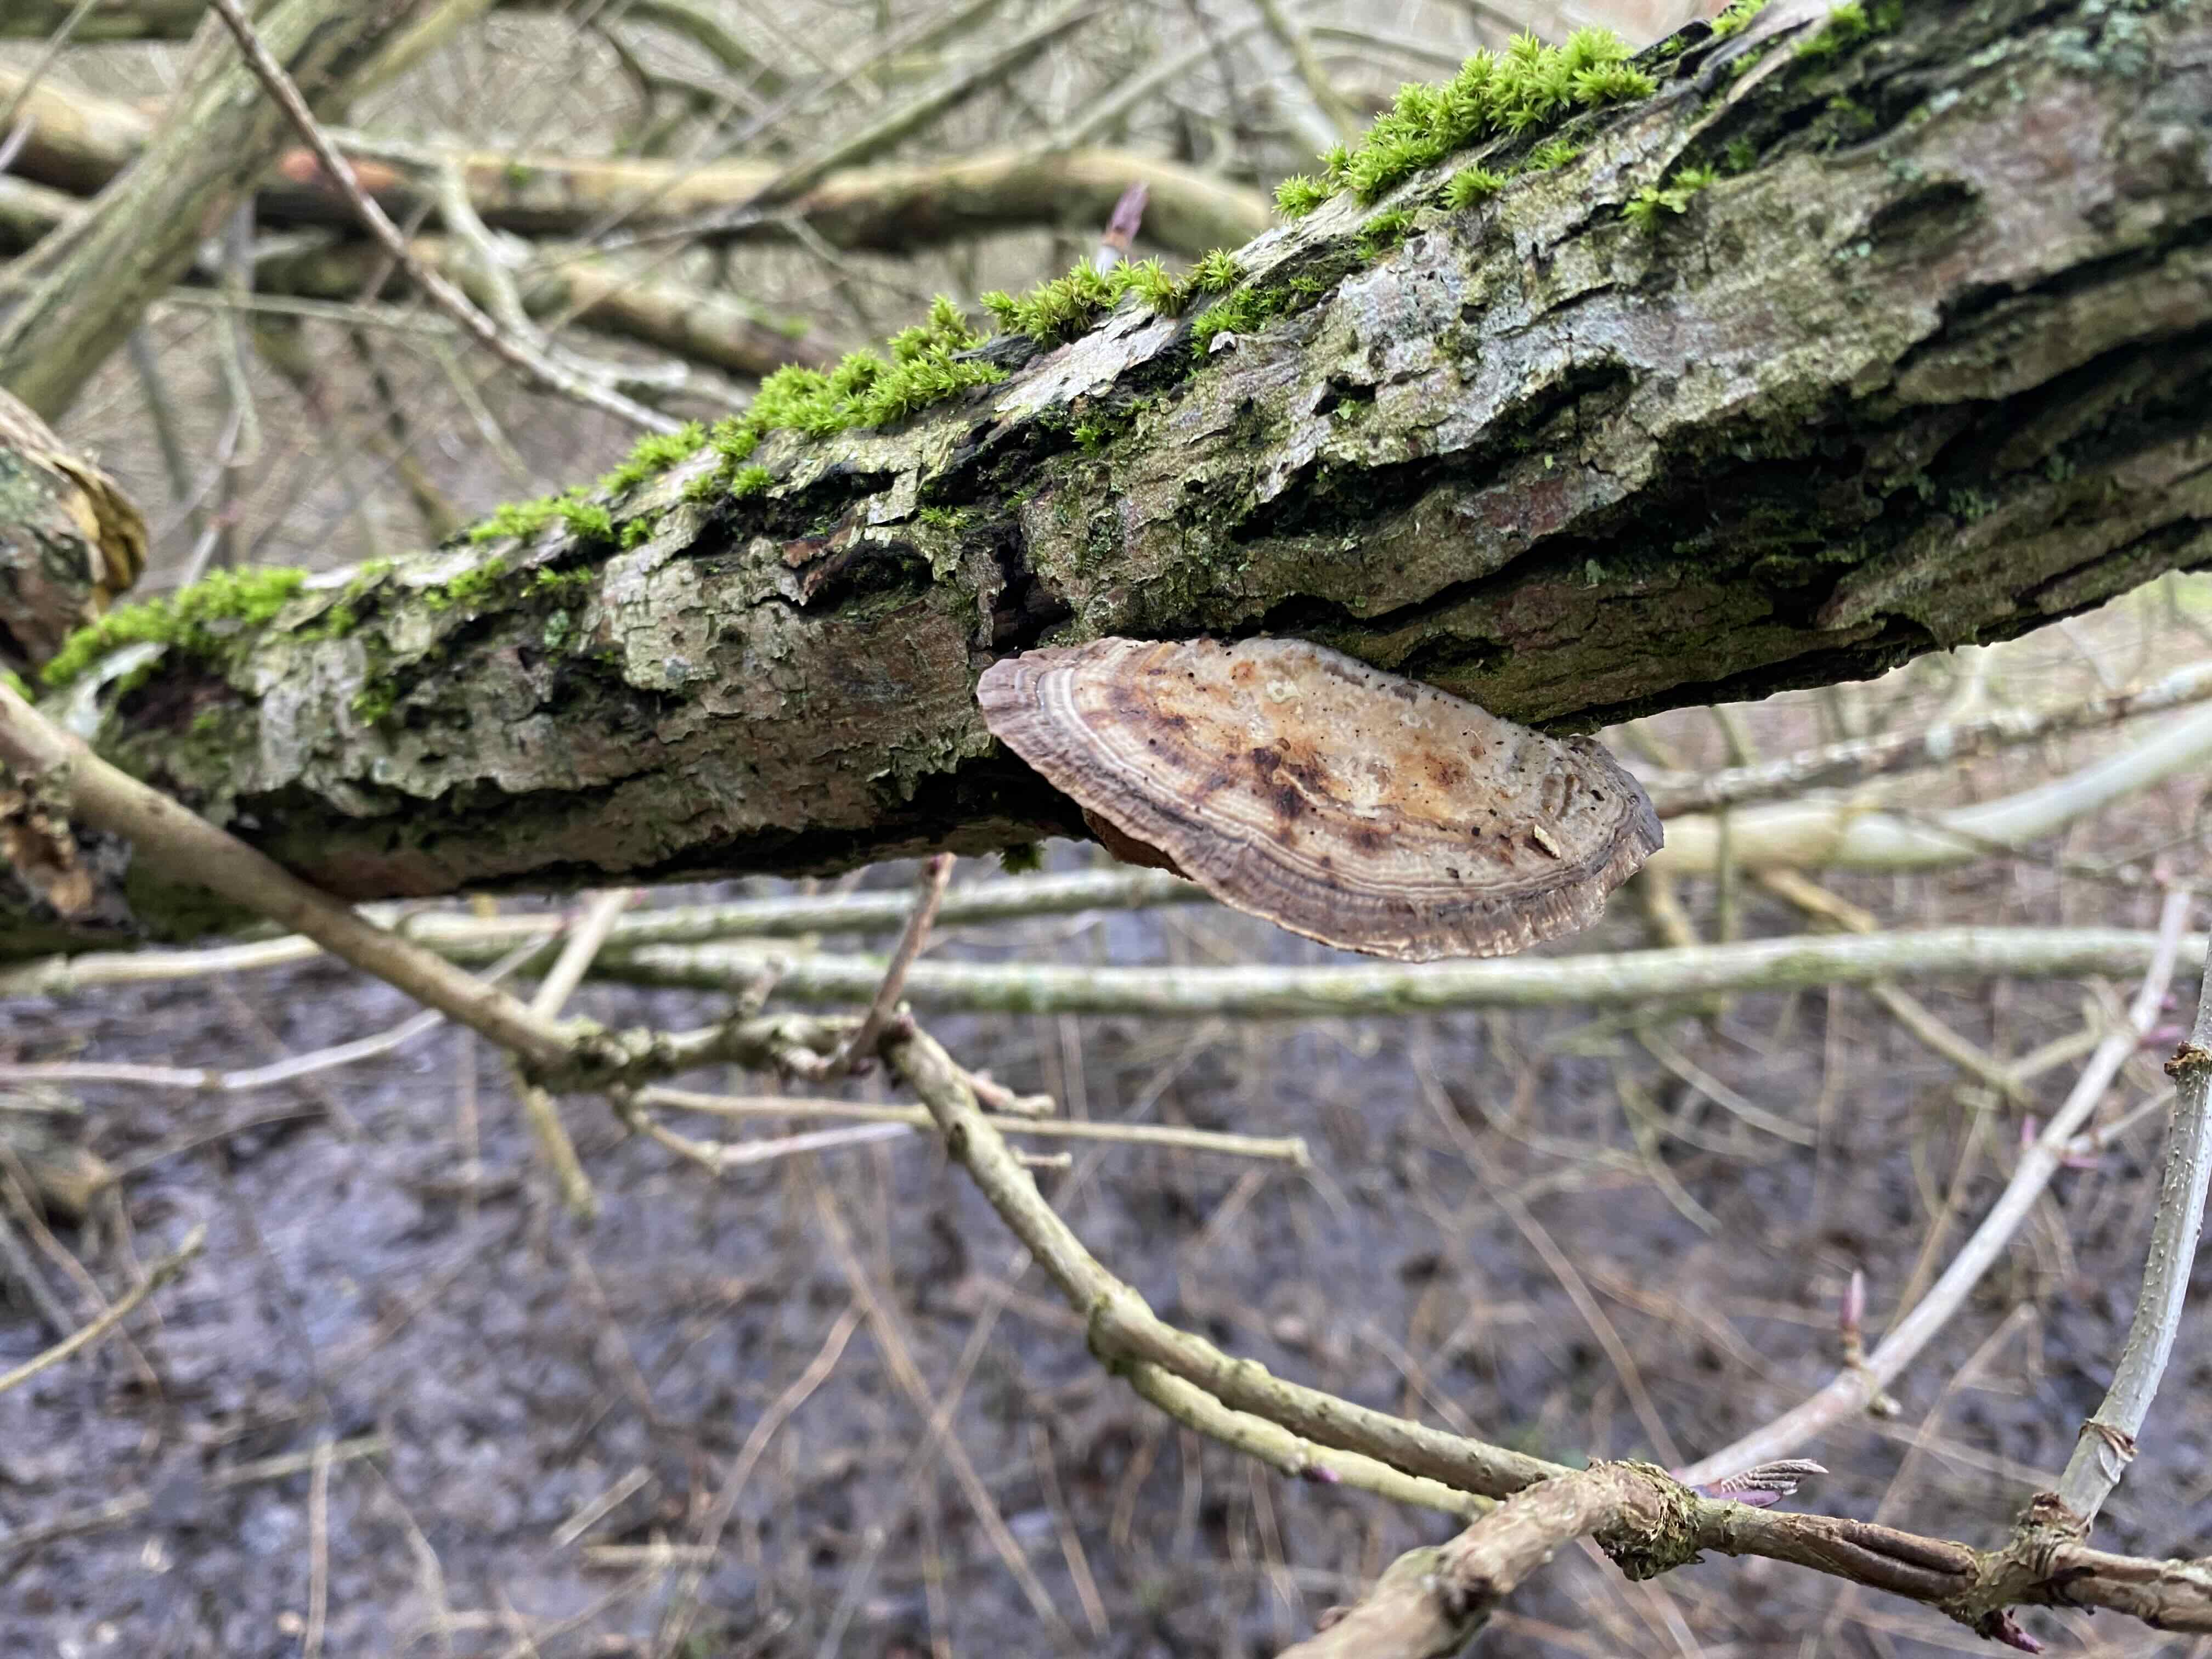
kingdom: Fungi
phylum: Basidiomycota
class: Agaricomycetes
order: Polyporales
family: Polyporaceae
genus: Daedaleopsis
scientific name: Daedaleopsis confragosa
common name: rødmende læderporesvamp
